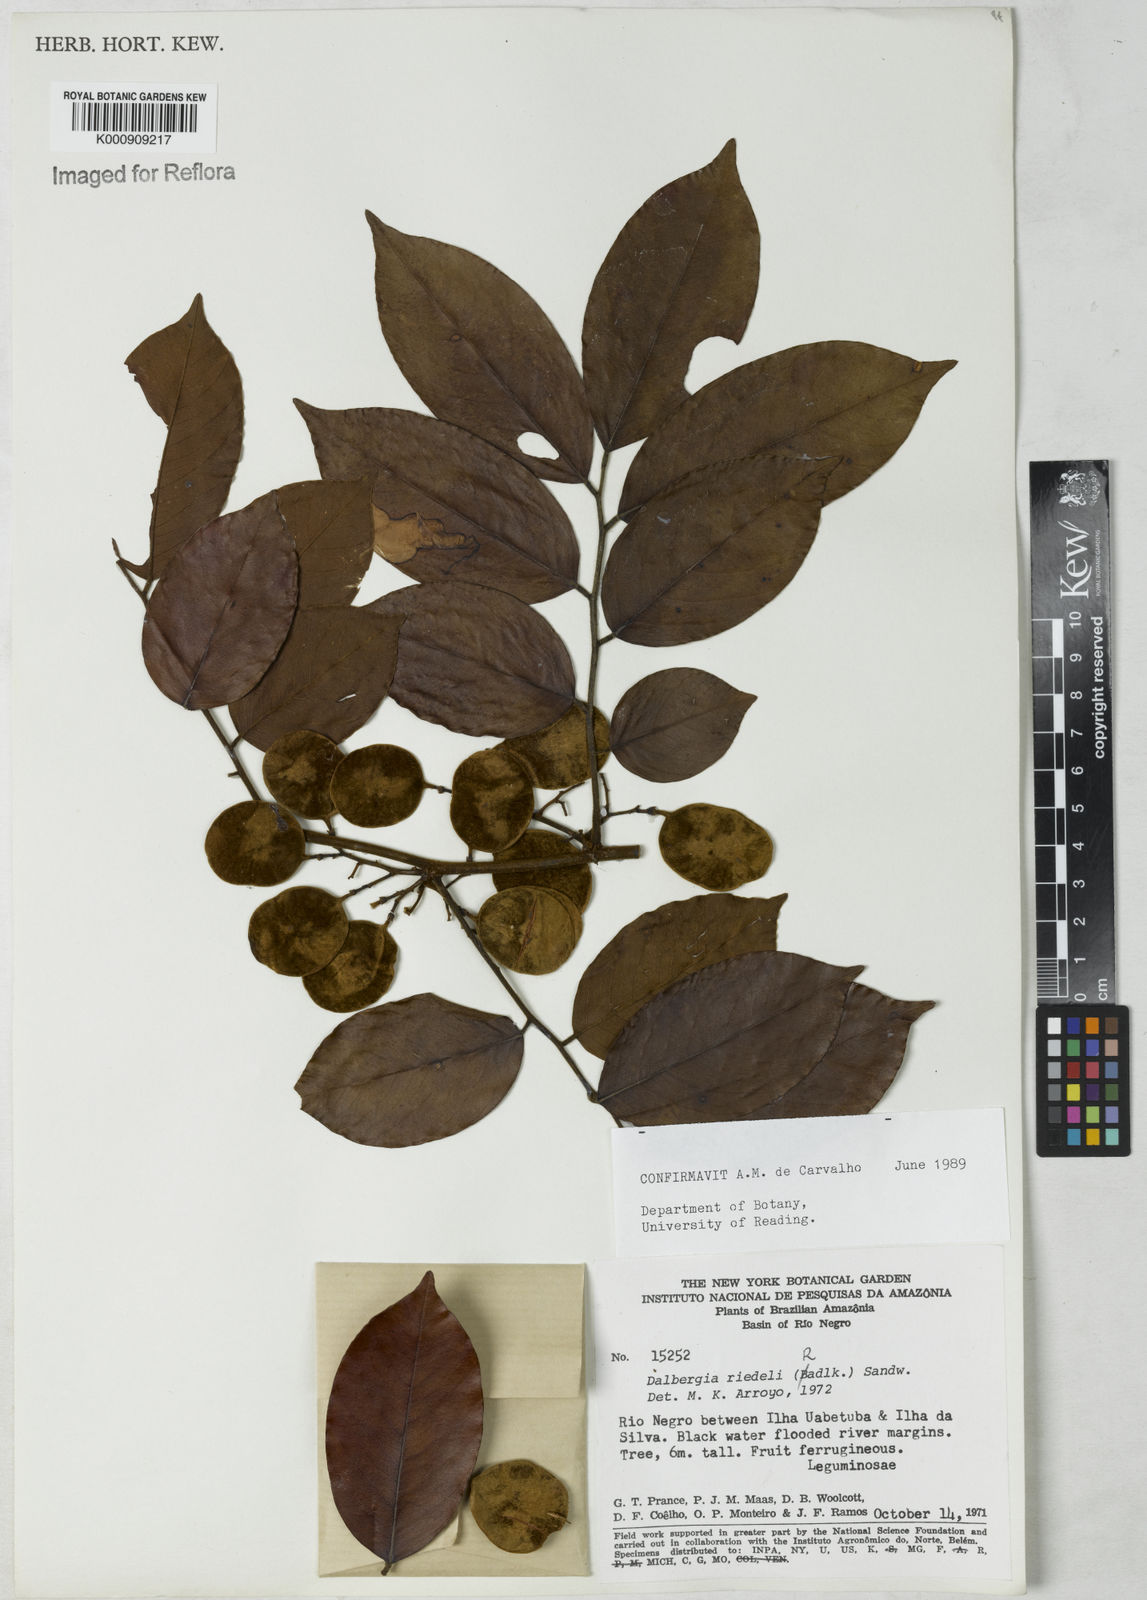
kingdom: Plantae
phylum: Tracheophyta
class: Magnoliopsida
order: Fabales
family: Fabaceae
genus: Dalbergia
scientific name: Dalbergia riedelii
